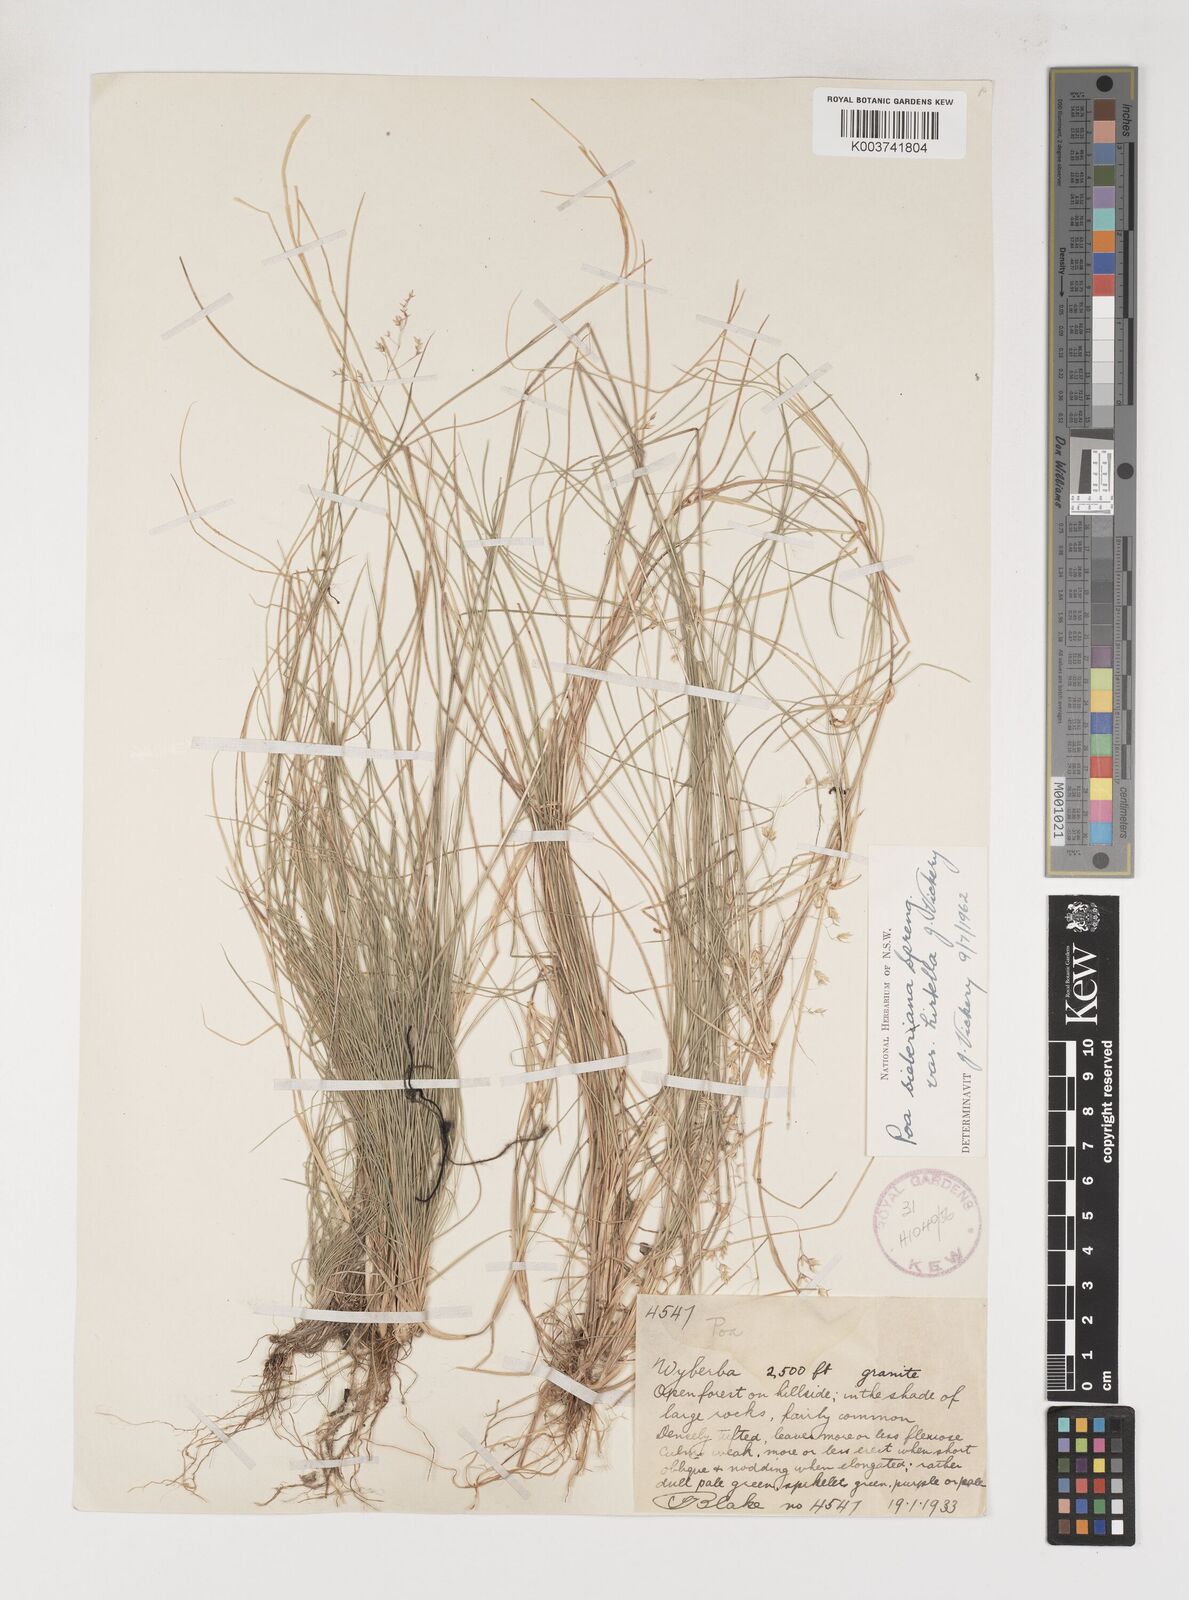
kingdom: Plantae
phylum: Tracheophyta
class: Liliopsida
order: Poales
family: Poaceae
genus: Poa
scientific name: Poa sieberiana
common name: Tussock poa
